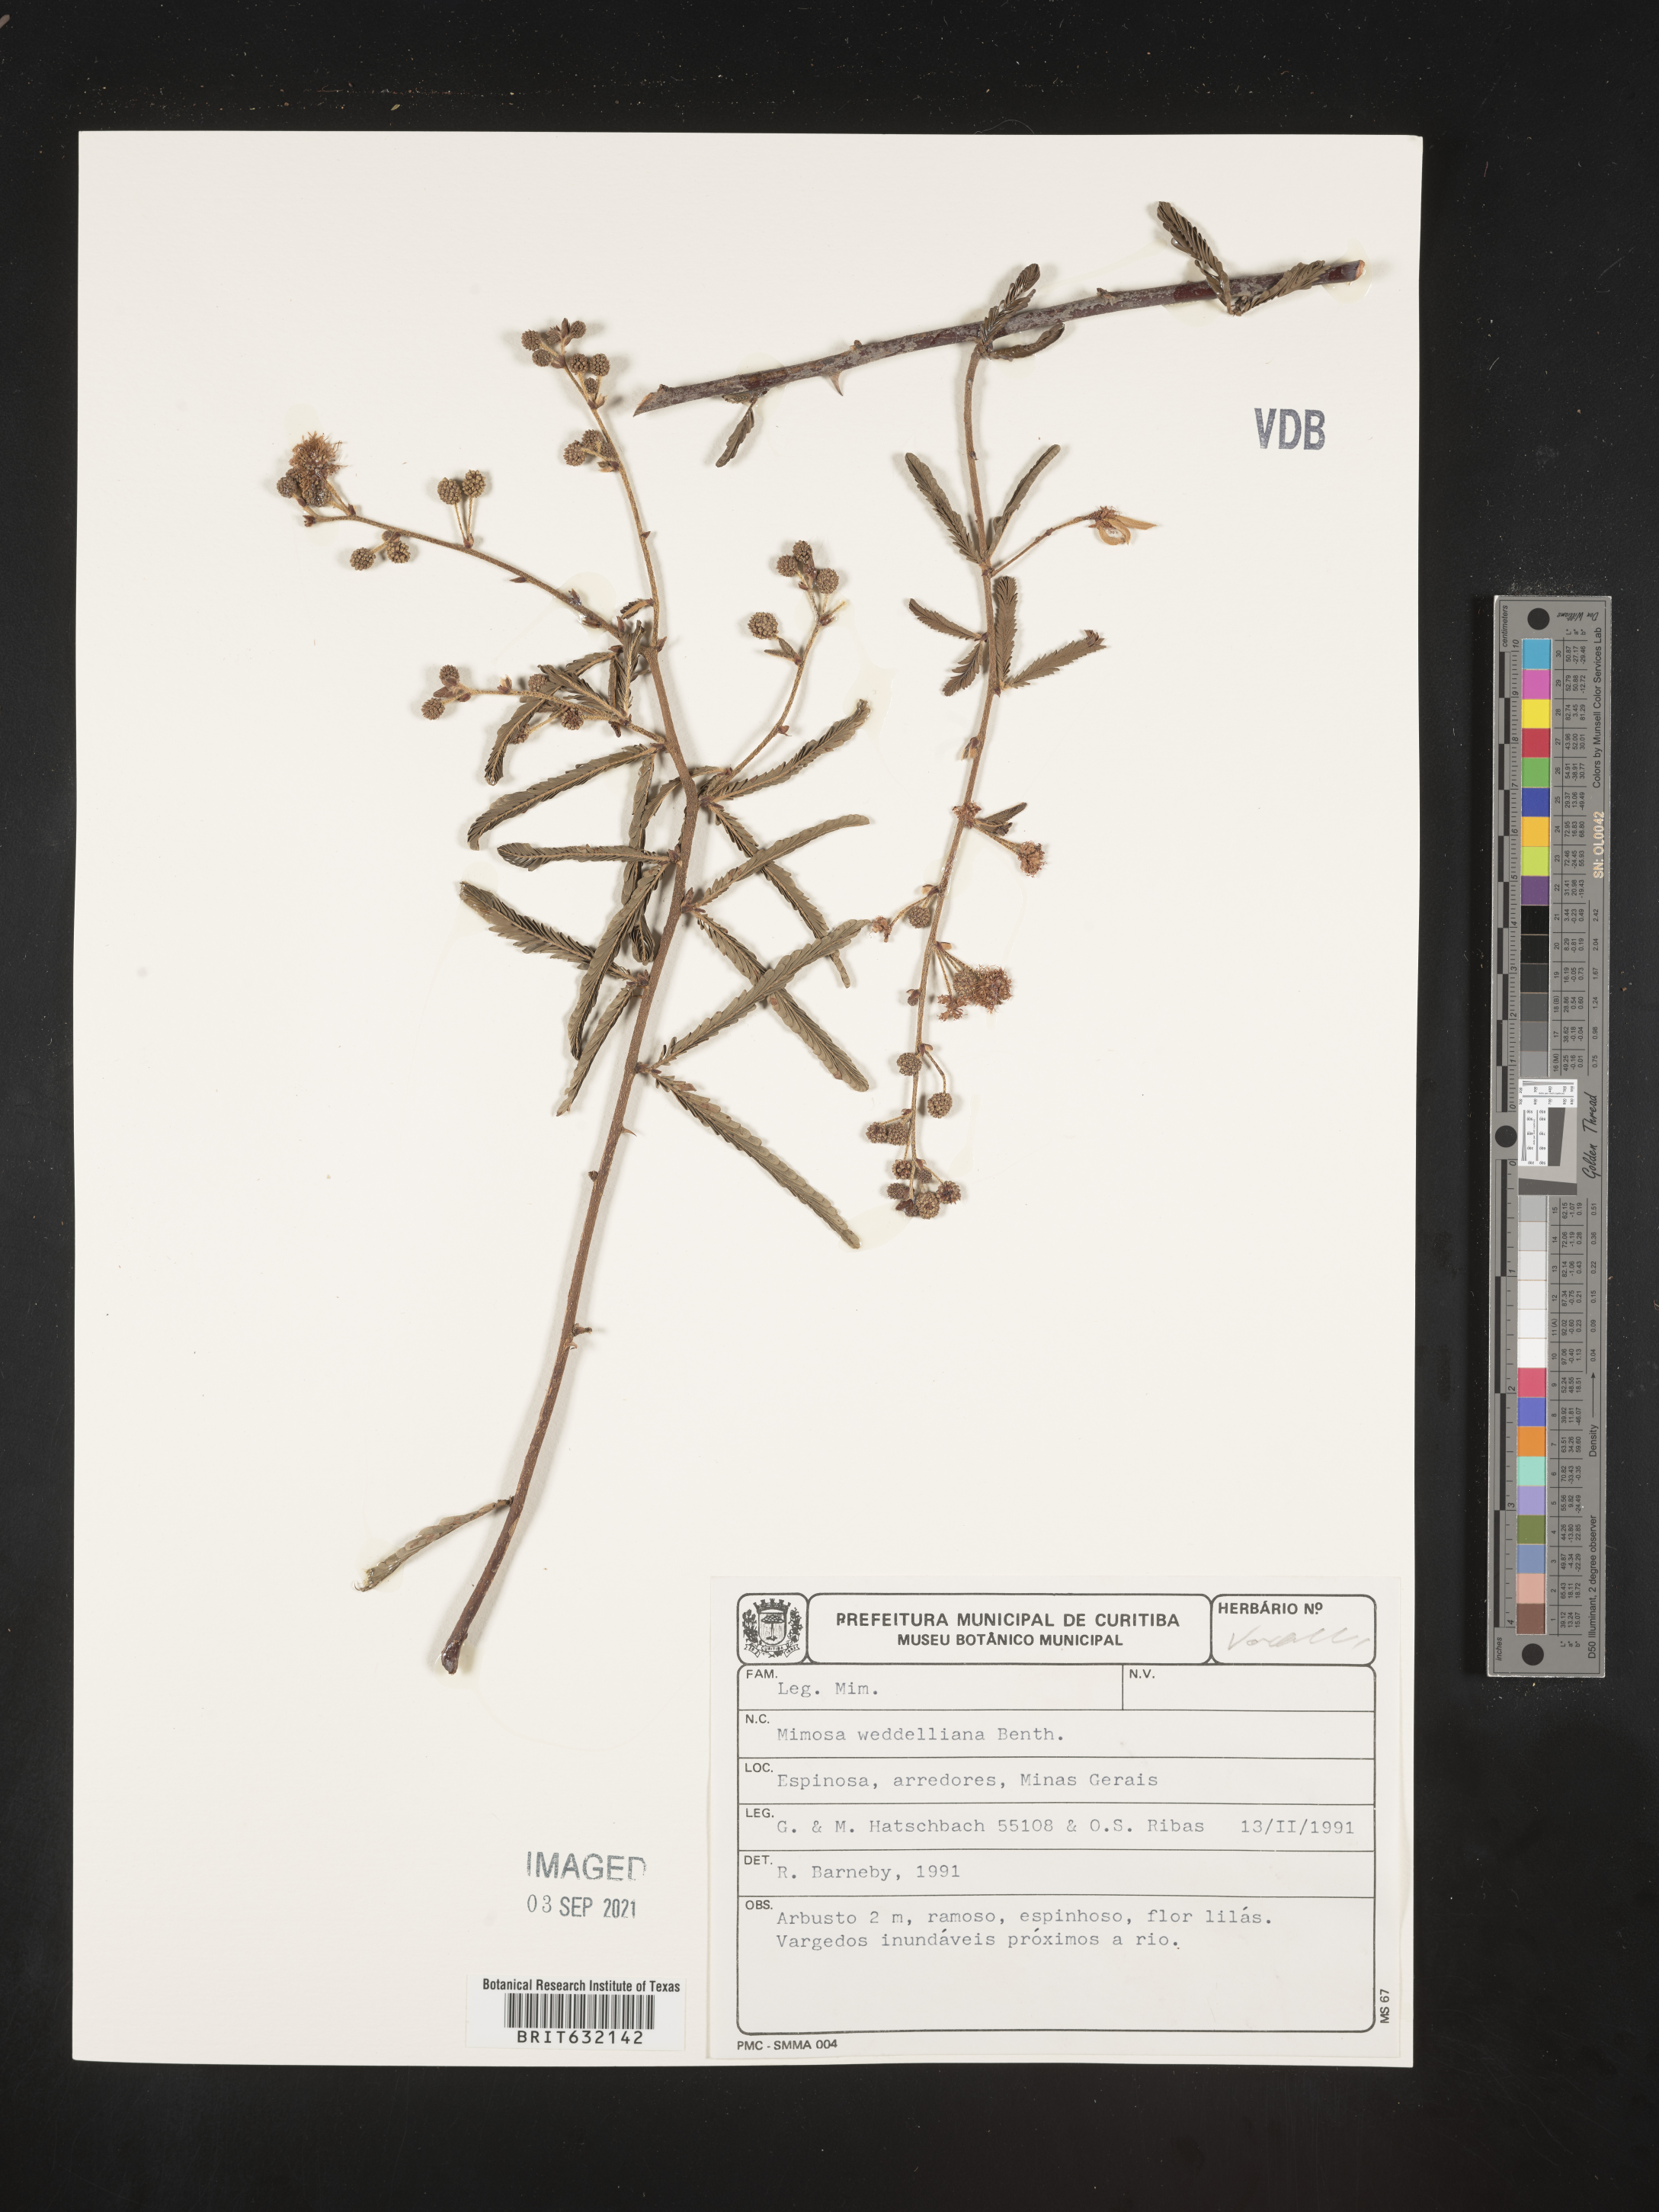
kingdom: Plantae
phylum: Tracheophyta
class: Magnoliopsida
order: Fabales
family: Fabaceae
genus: Mimosa
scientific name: Mimosa
